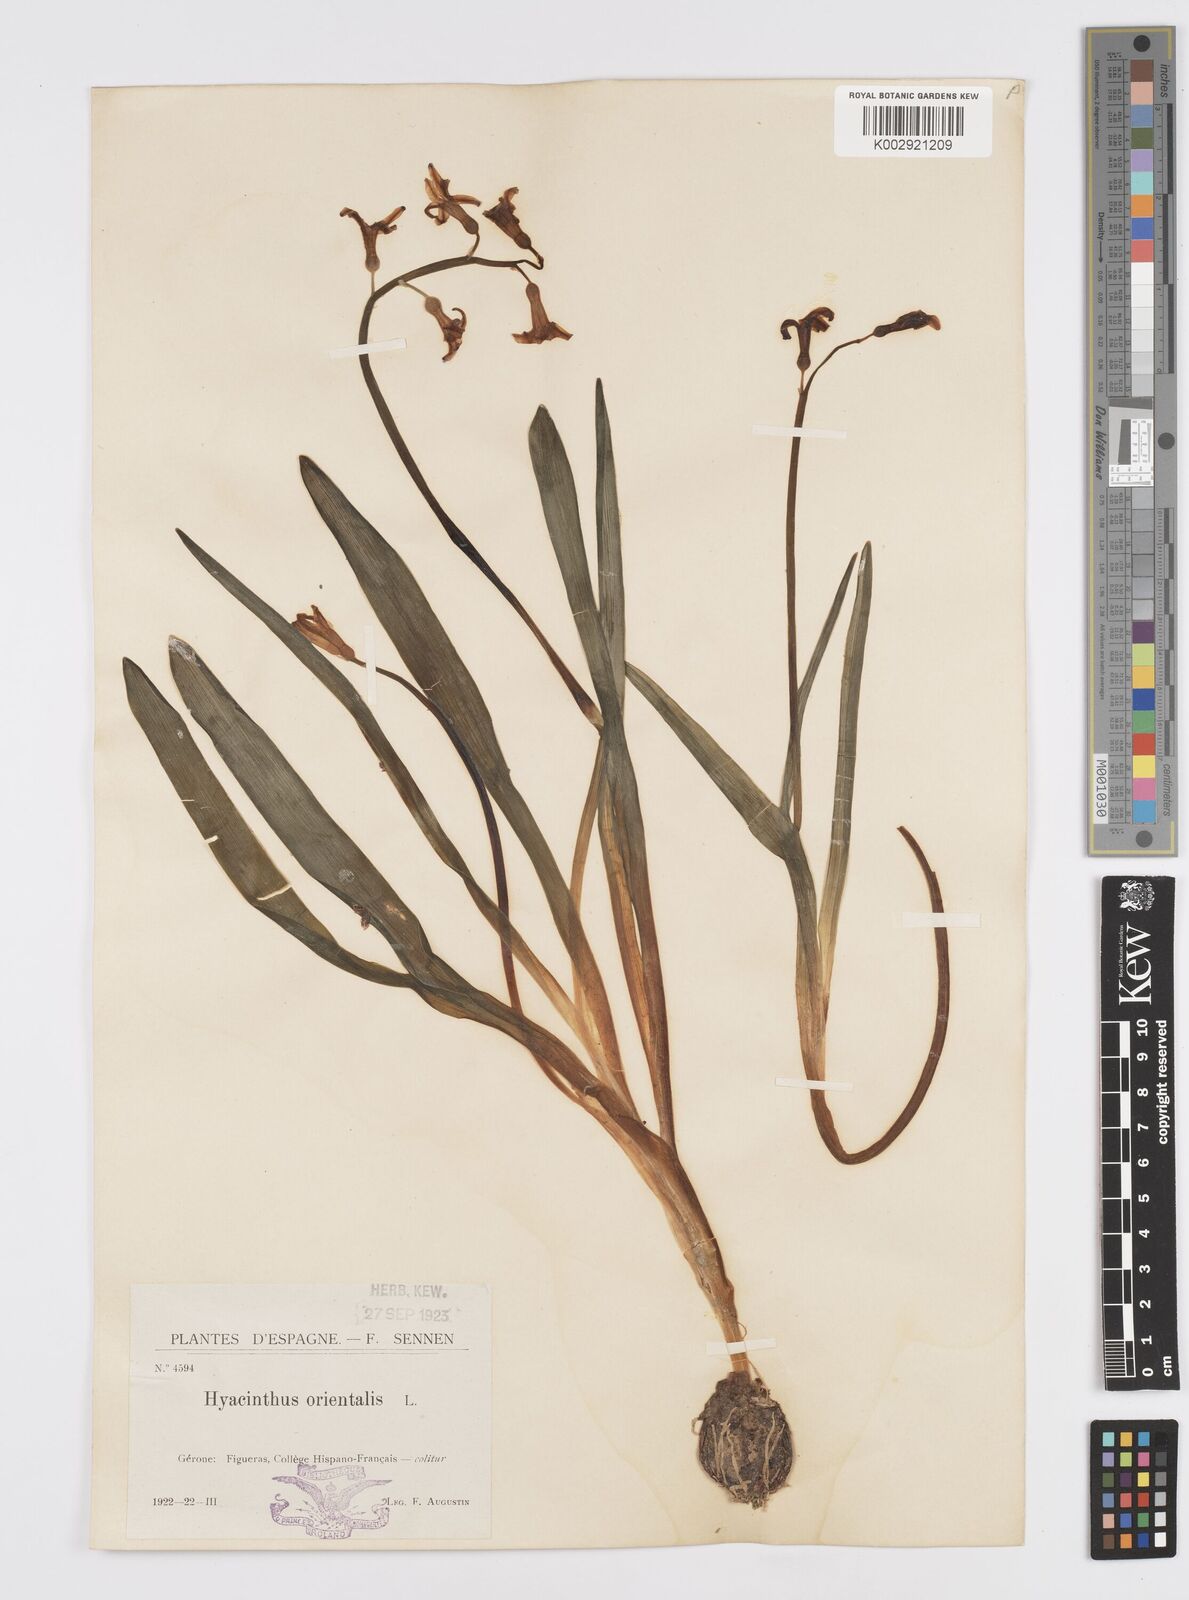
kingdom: Plantae
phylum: Tracheophyta
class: Liliopsida
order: Asparagales
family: Asparagaceae
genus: Hyacinthus
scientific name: Hyacinthus orientalis
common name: Hyacinth
